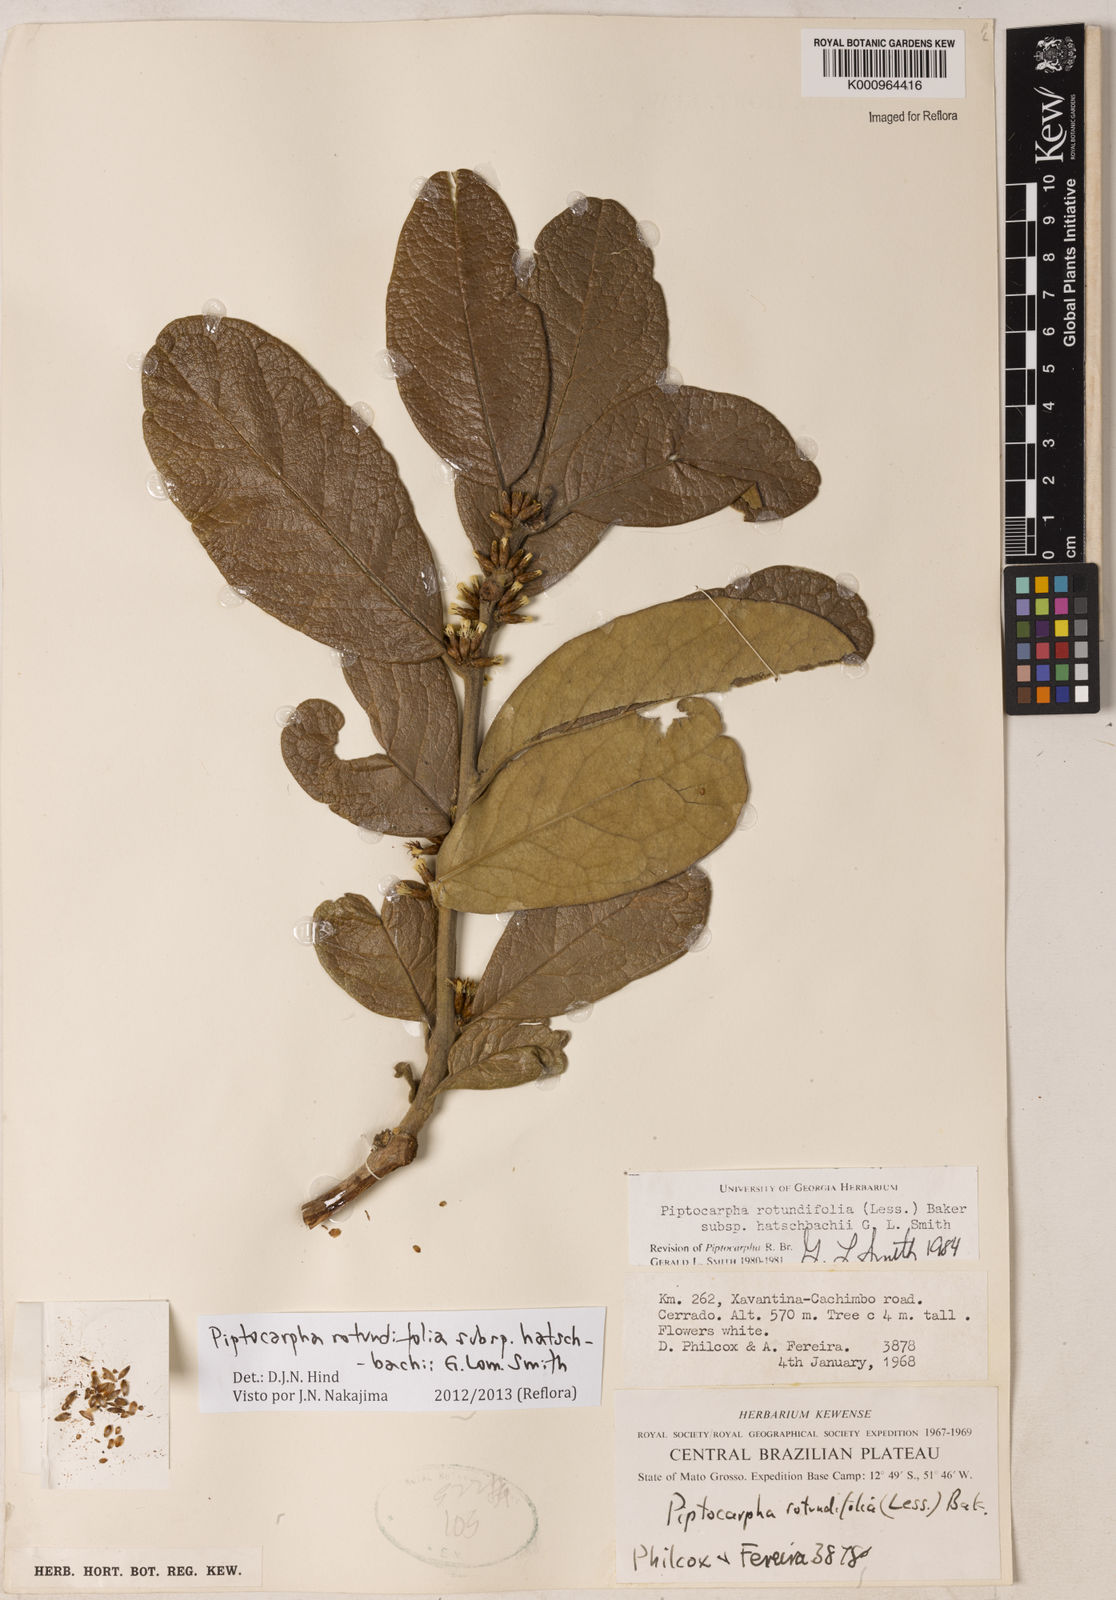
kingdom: Plantae
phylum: Tracheophyta
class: Magnoliopsida
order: Asterales
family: Asteraceae
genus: Piptocarpha
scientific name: Piptocarpha rotundifolia
